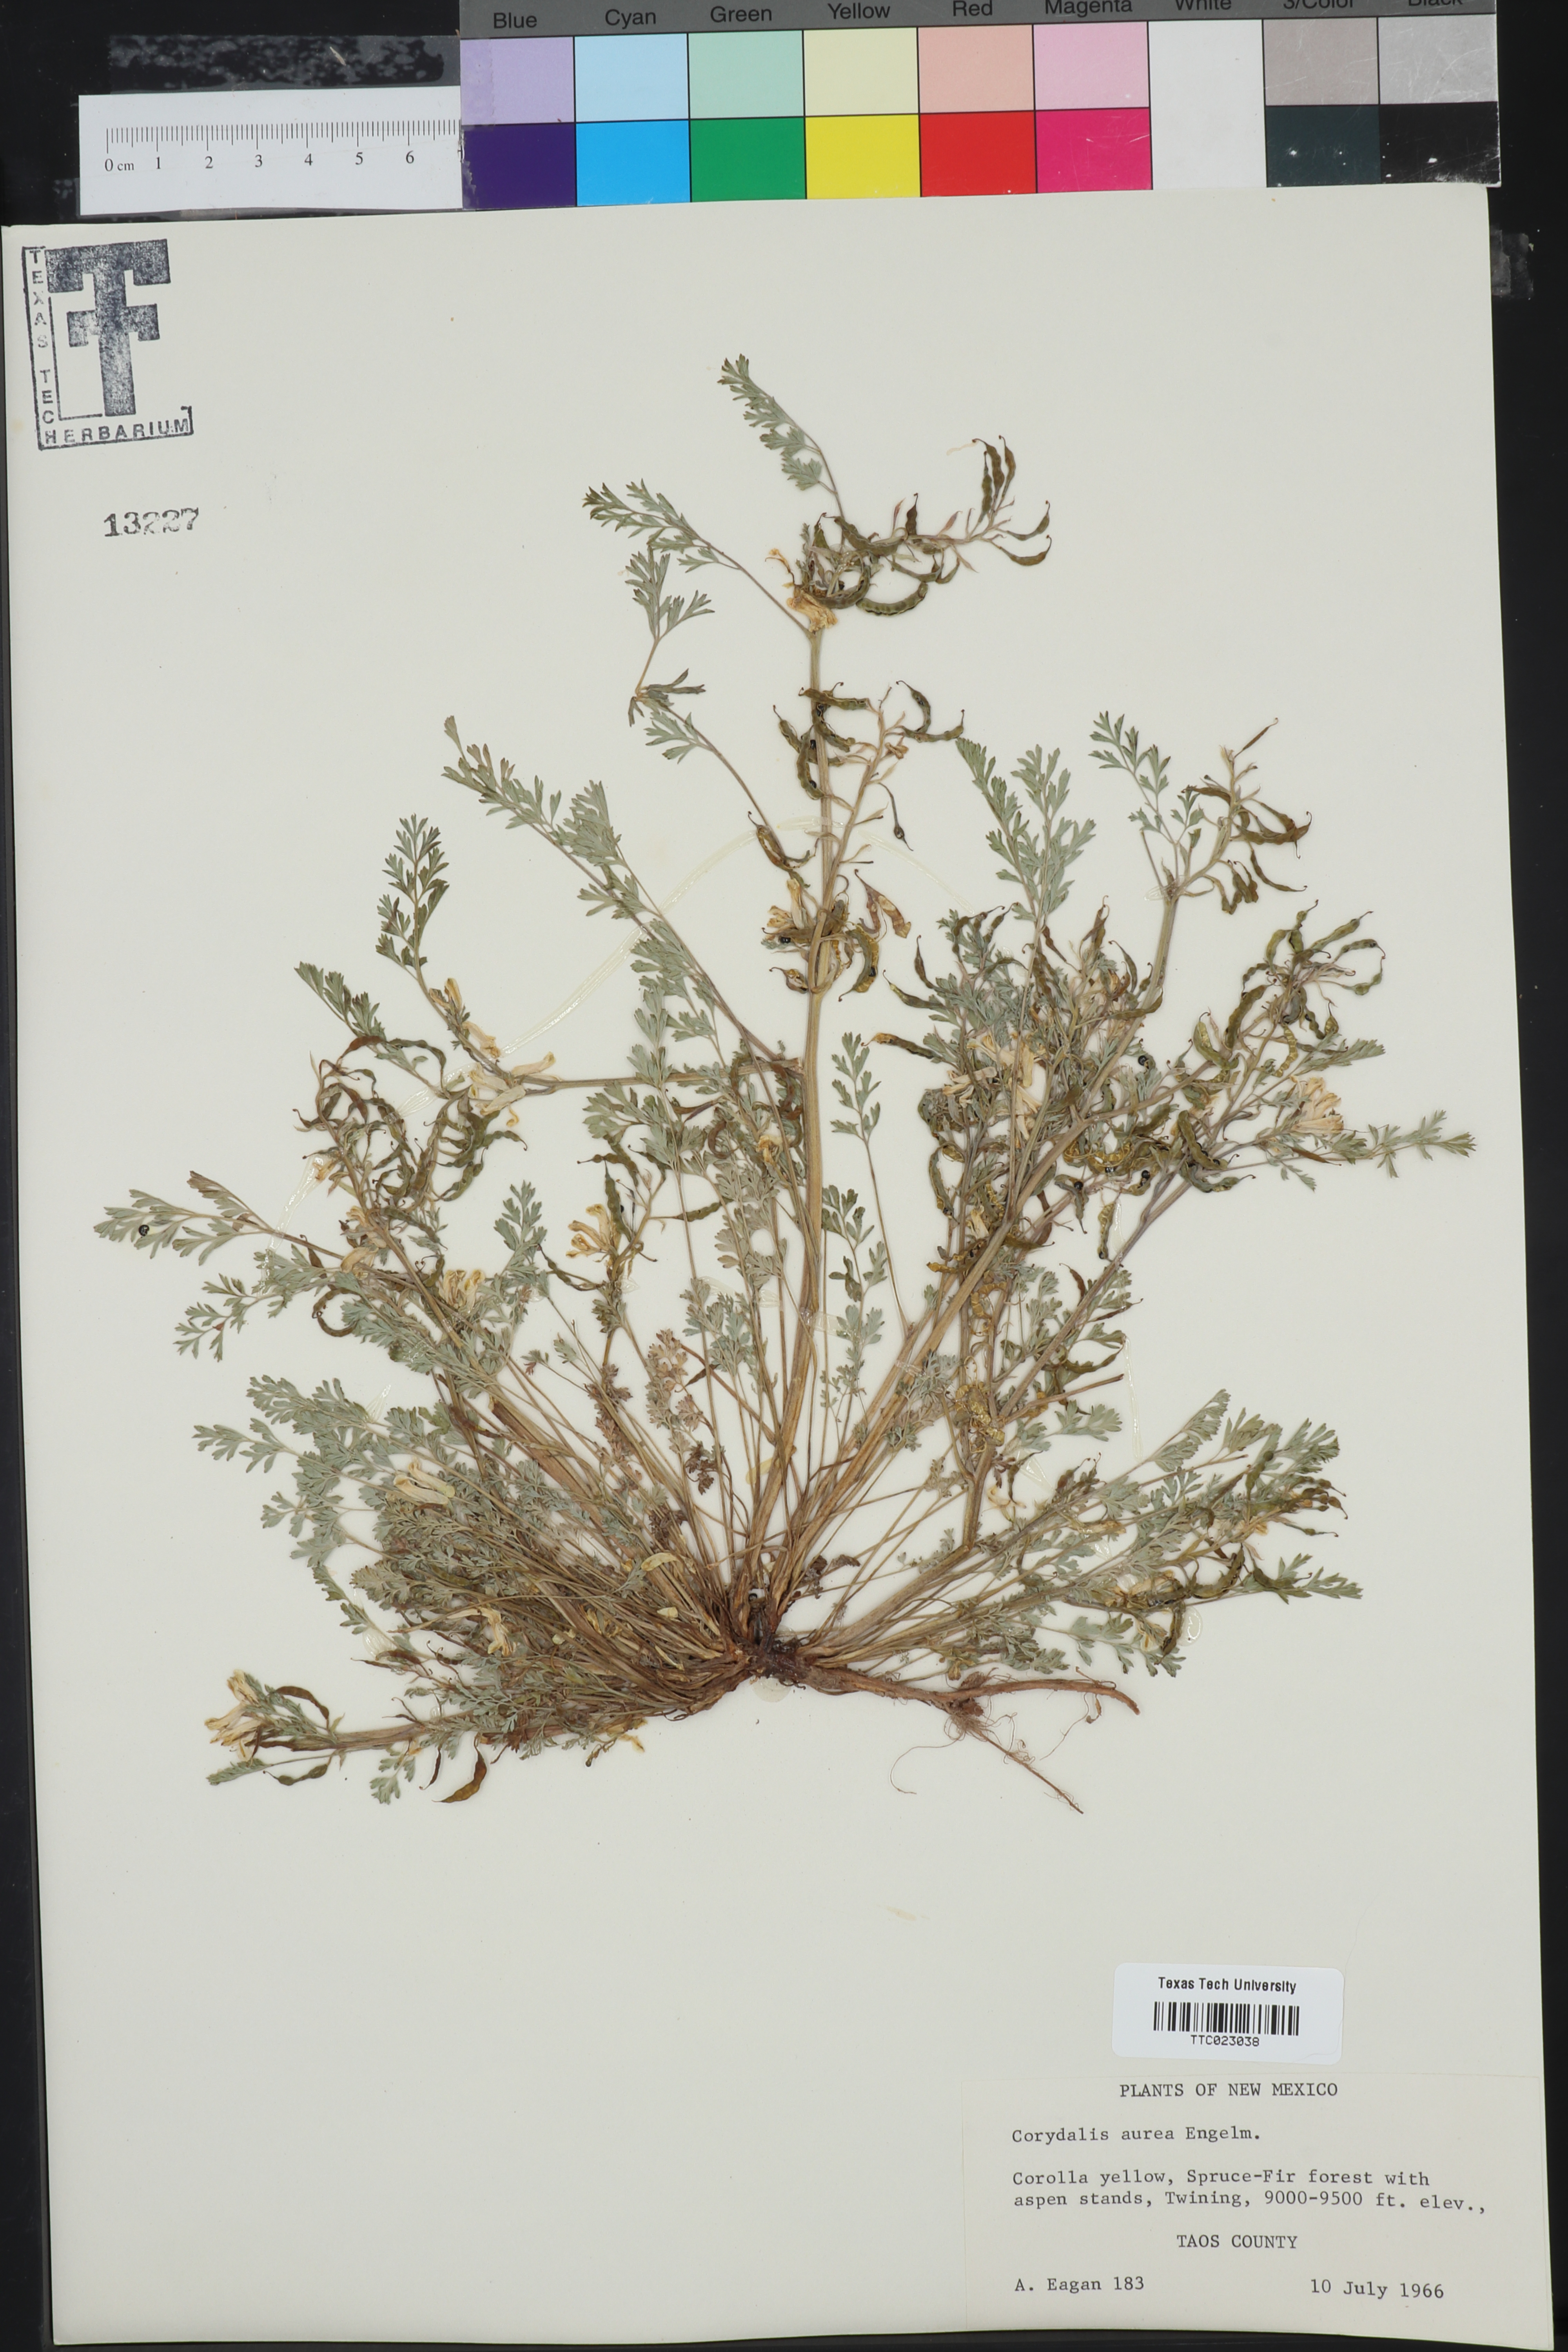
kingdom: Plantae
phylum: Tracheophyta
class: Magnoliopsida
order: Ranunculales
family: Papaveraceae
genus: Corydalis
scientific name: Corydalis aurea
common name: Golden corydalis
